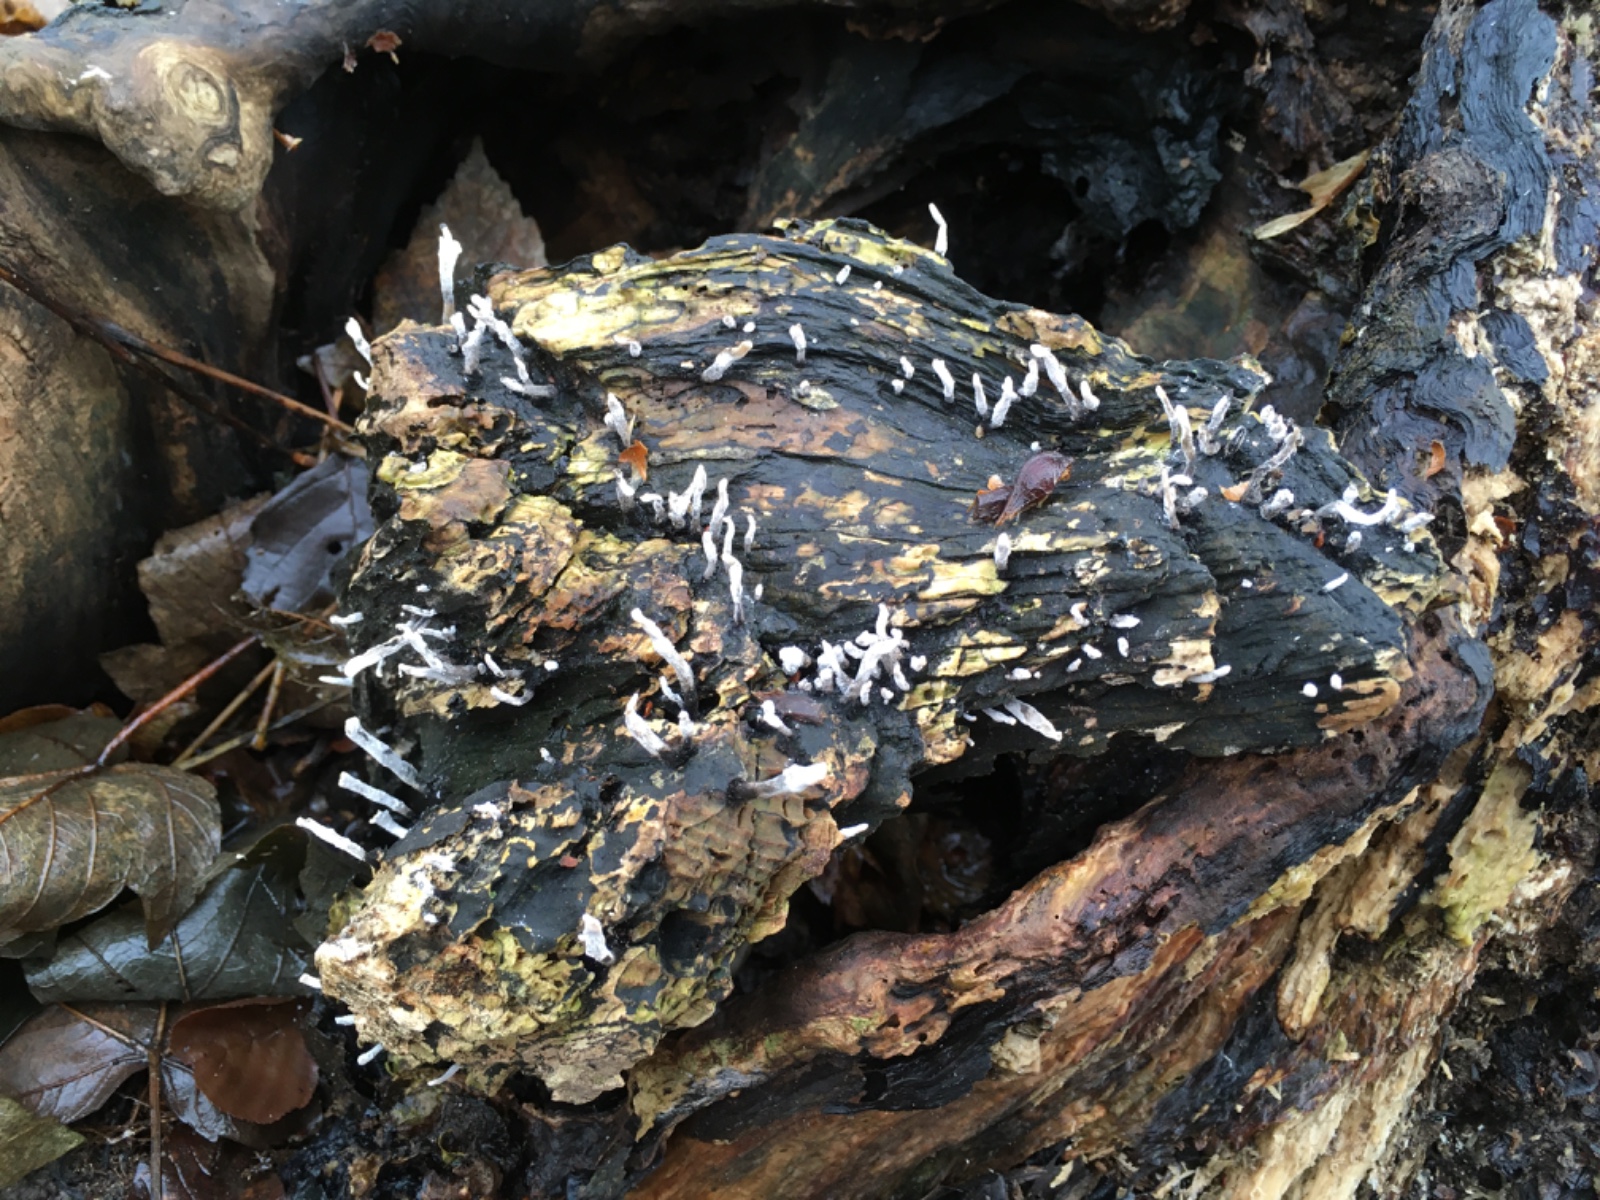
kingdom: Fungi
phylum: Ascomycota
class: Sordariomycetes
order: Xylariales
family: Xylariaceae
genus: Xylaria
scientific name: Xylaria hypoxylon
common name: grenet stødsvamp
